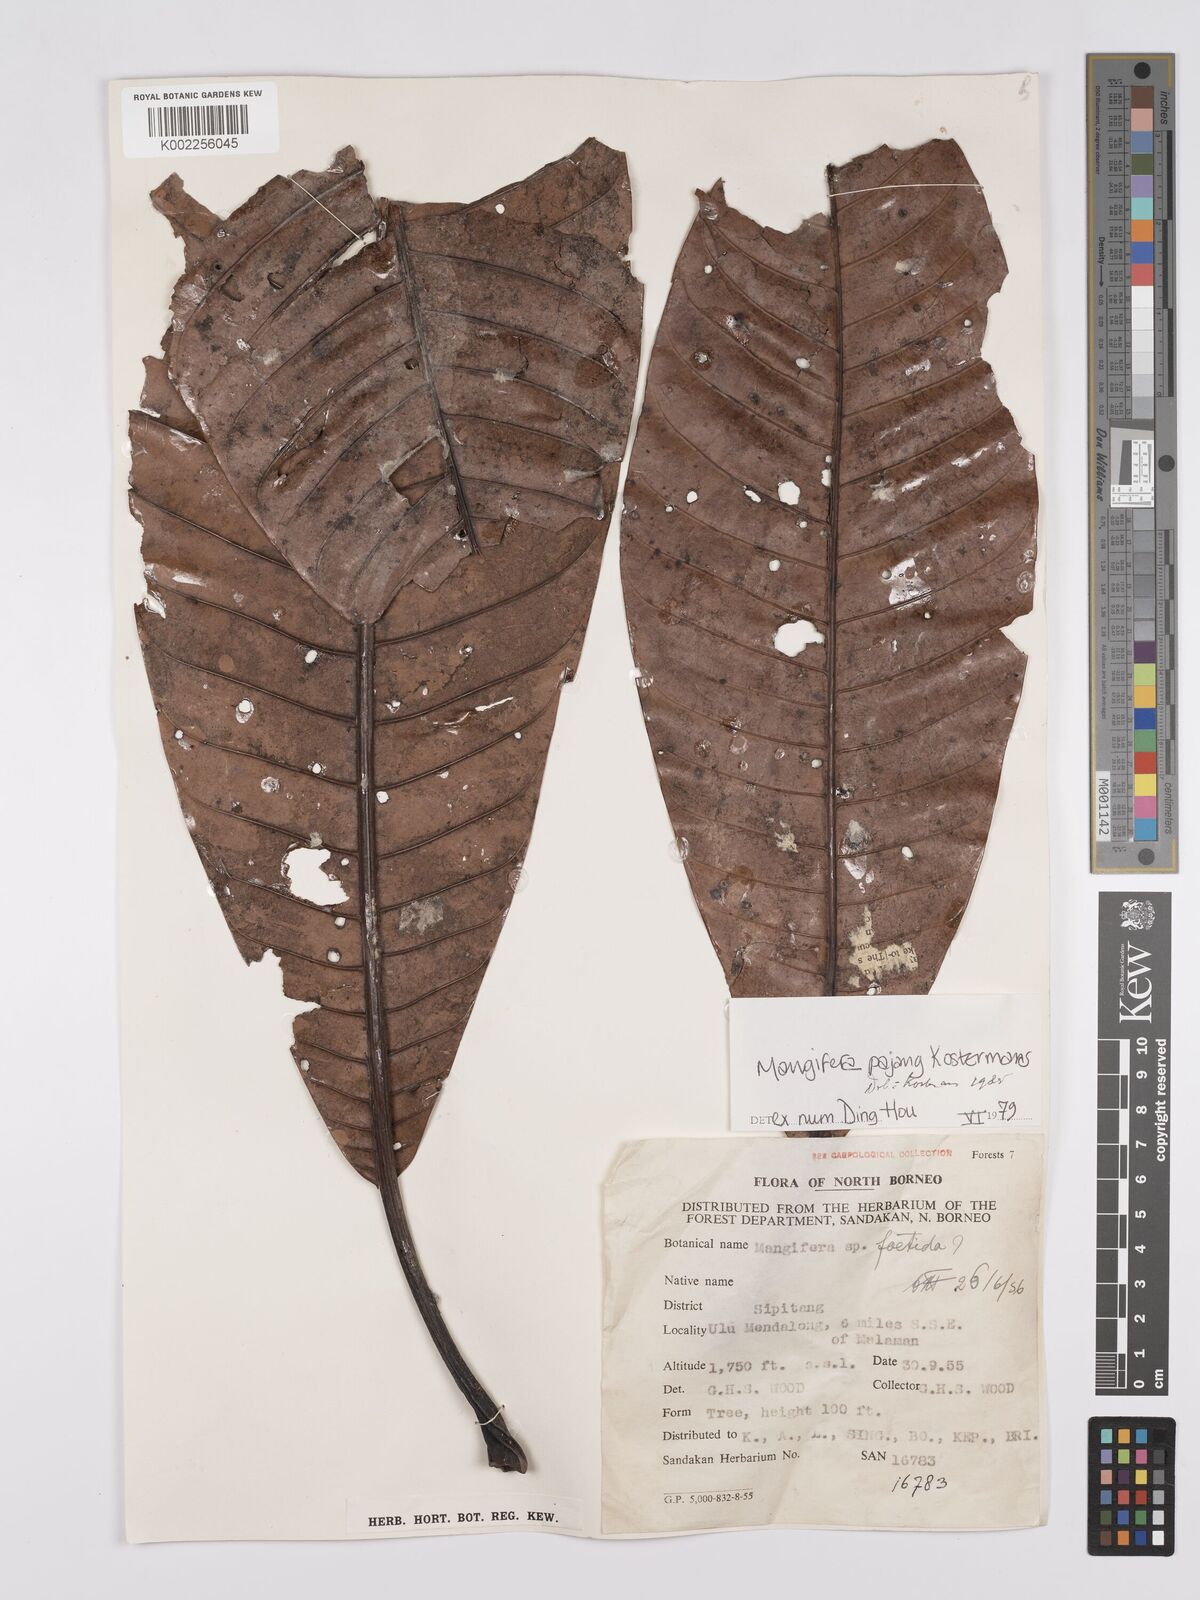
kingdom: Plantae
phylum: Tracheophyta
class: Magnoliopsida
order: Sapindales
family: Anacardiaceae
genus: Mangifera
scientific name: Mangifera pajang
